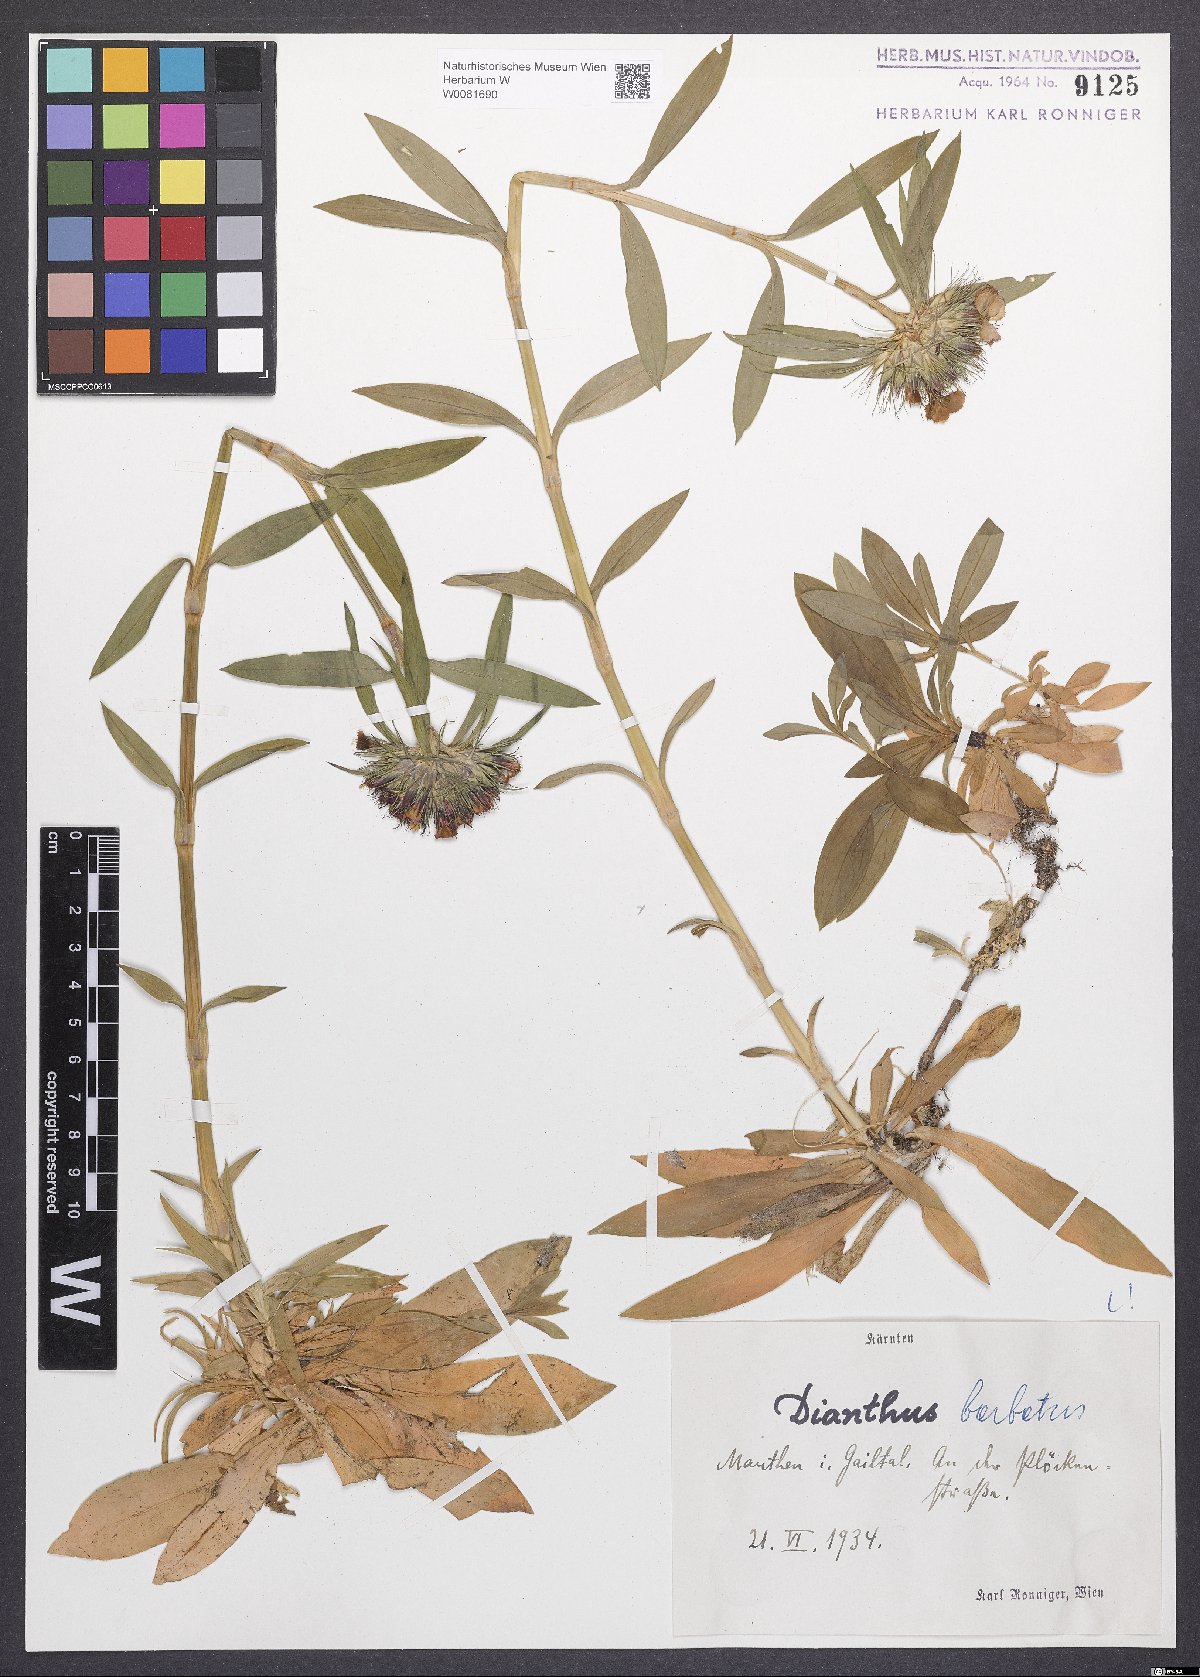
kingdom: Plantae
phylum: Tracheophyta
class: Magnoliopsida
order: Caryophyllales
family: Caryophyllaceae
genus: Dianthus
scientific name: Dianthus barbatus
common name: Sweet-william
